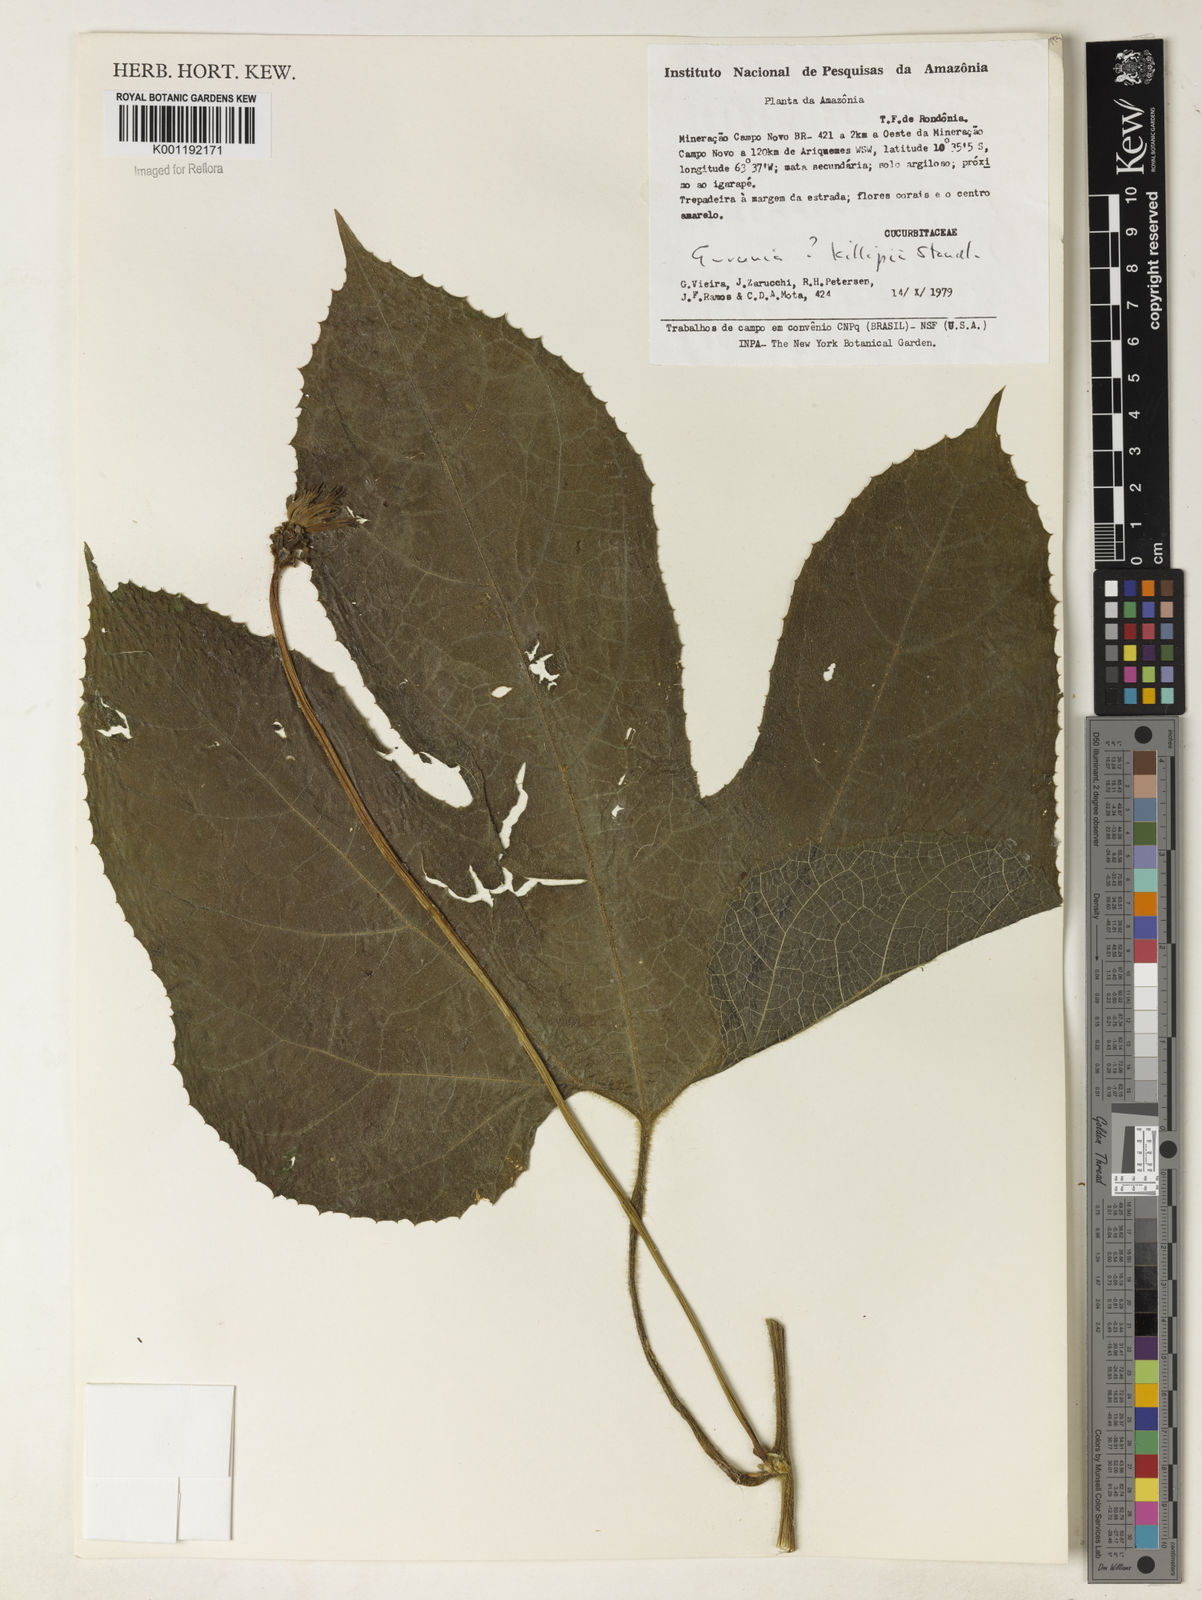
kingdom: Plantae
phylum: Tracheophyta
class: Magnoliopsida
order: Cucurbitales
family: Cucurbitaceae
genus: Gurania
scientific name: Gurania
